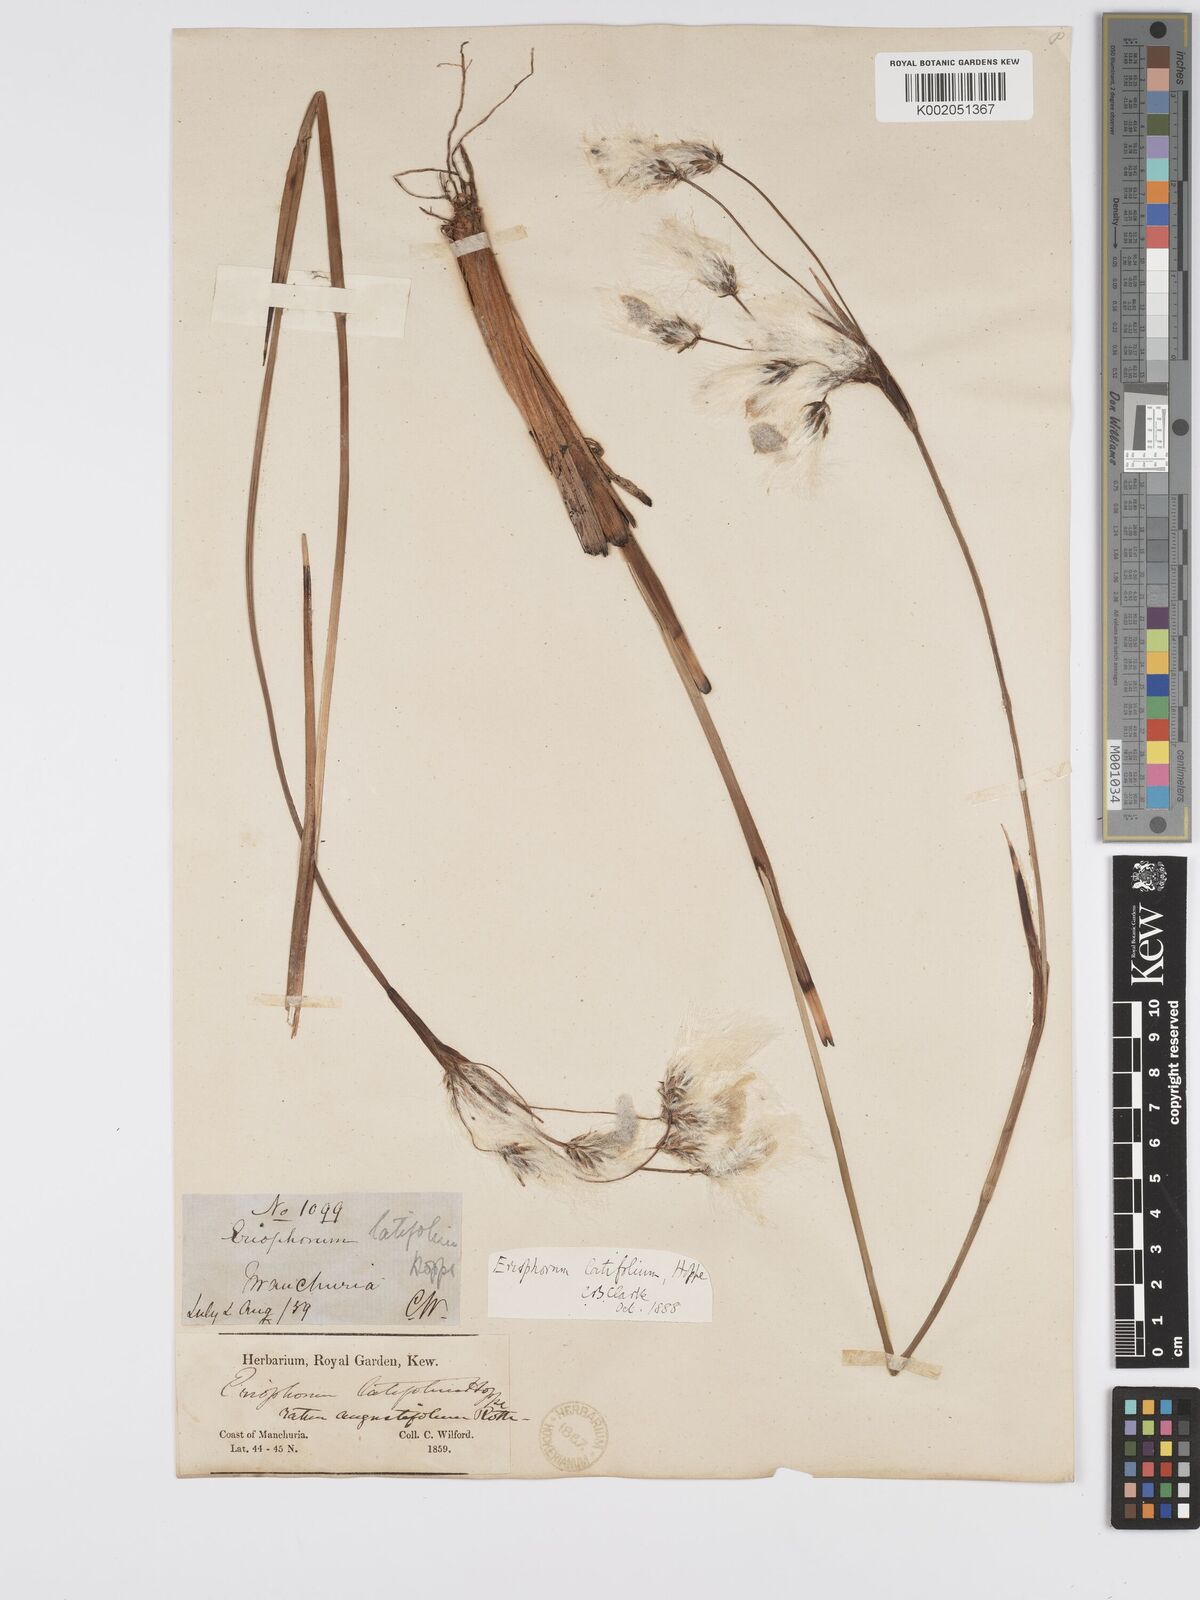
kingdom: Plantae
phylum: Tracheophyta
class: Liliopsida
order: Poales
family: Cyperaceae
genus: Eriophorum
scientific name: Eriophorum latifolium
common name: Broad-leaved cottongrass
